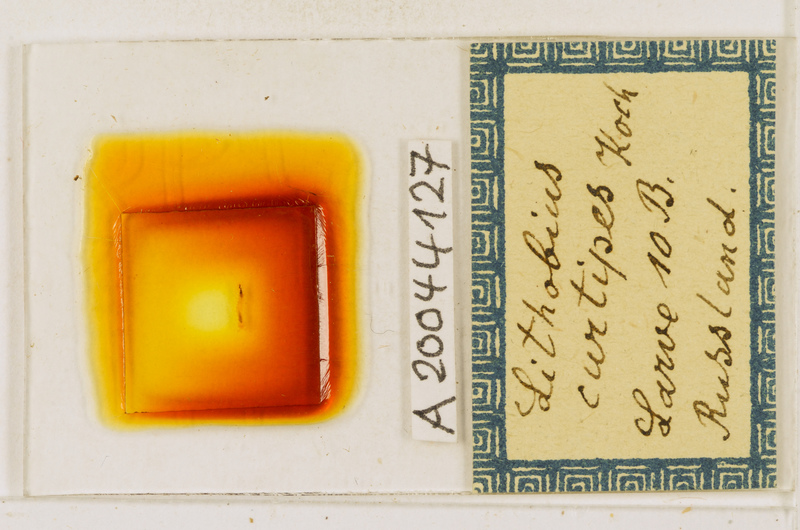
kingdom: Animalia
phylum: Arthropoda
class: Chilopoda
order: Lithobiomorpha
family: Lithobiidae
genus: Lithobius
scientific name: Lithobius curtipes
